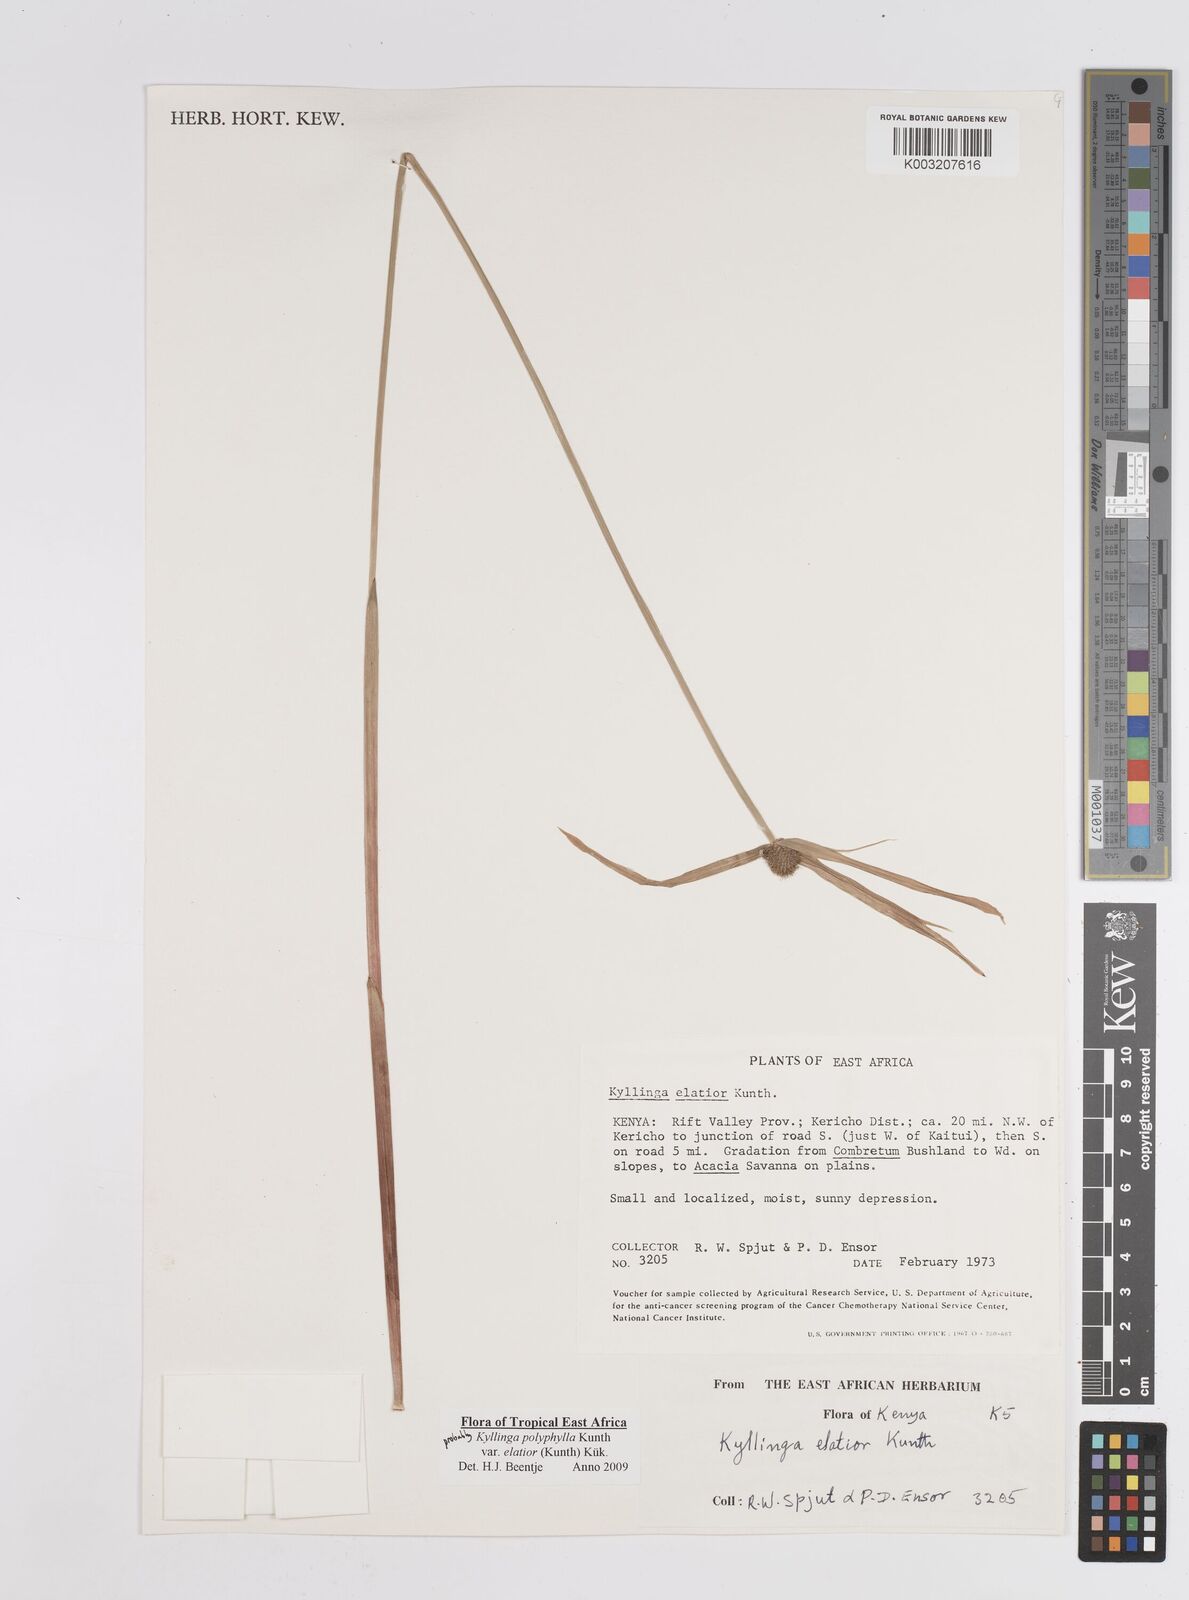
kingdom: Plantae
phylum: Tracheophyta
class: Liliopsida
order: Poales
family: Cyperaceae
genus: Cyperus
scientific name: Cyperus
